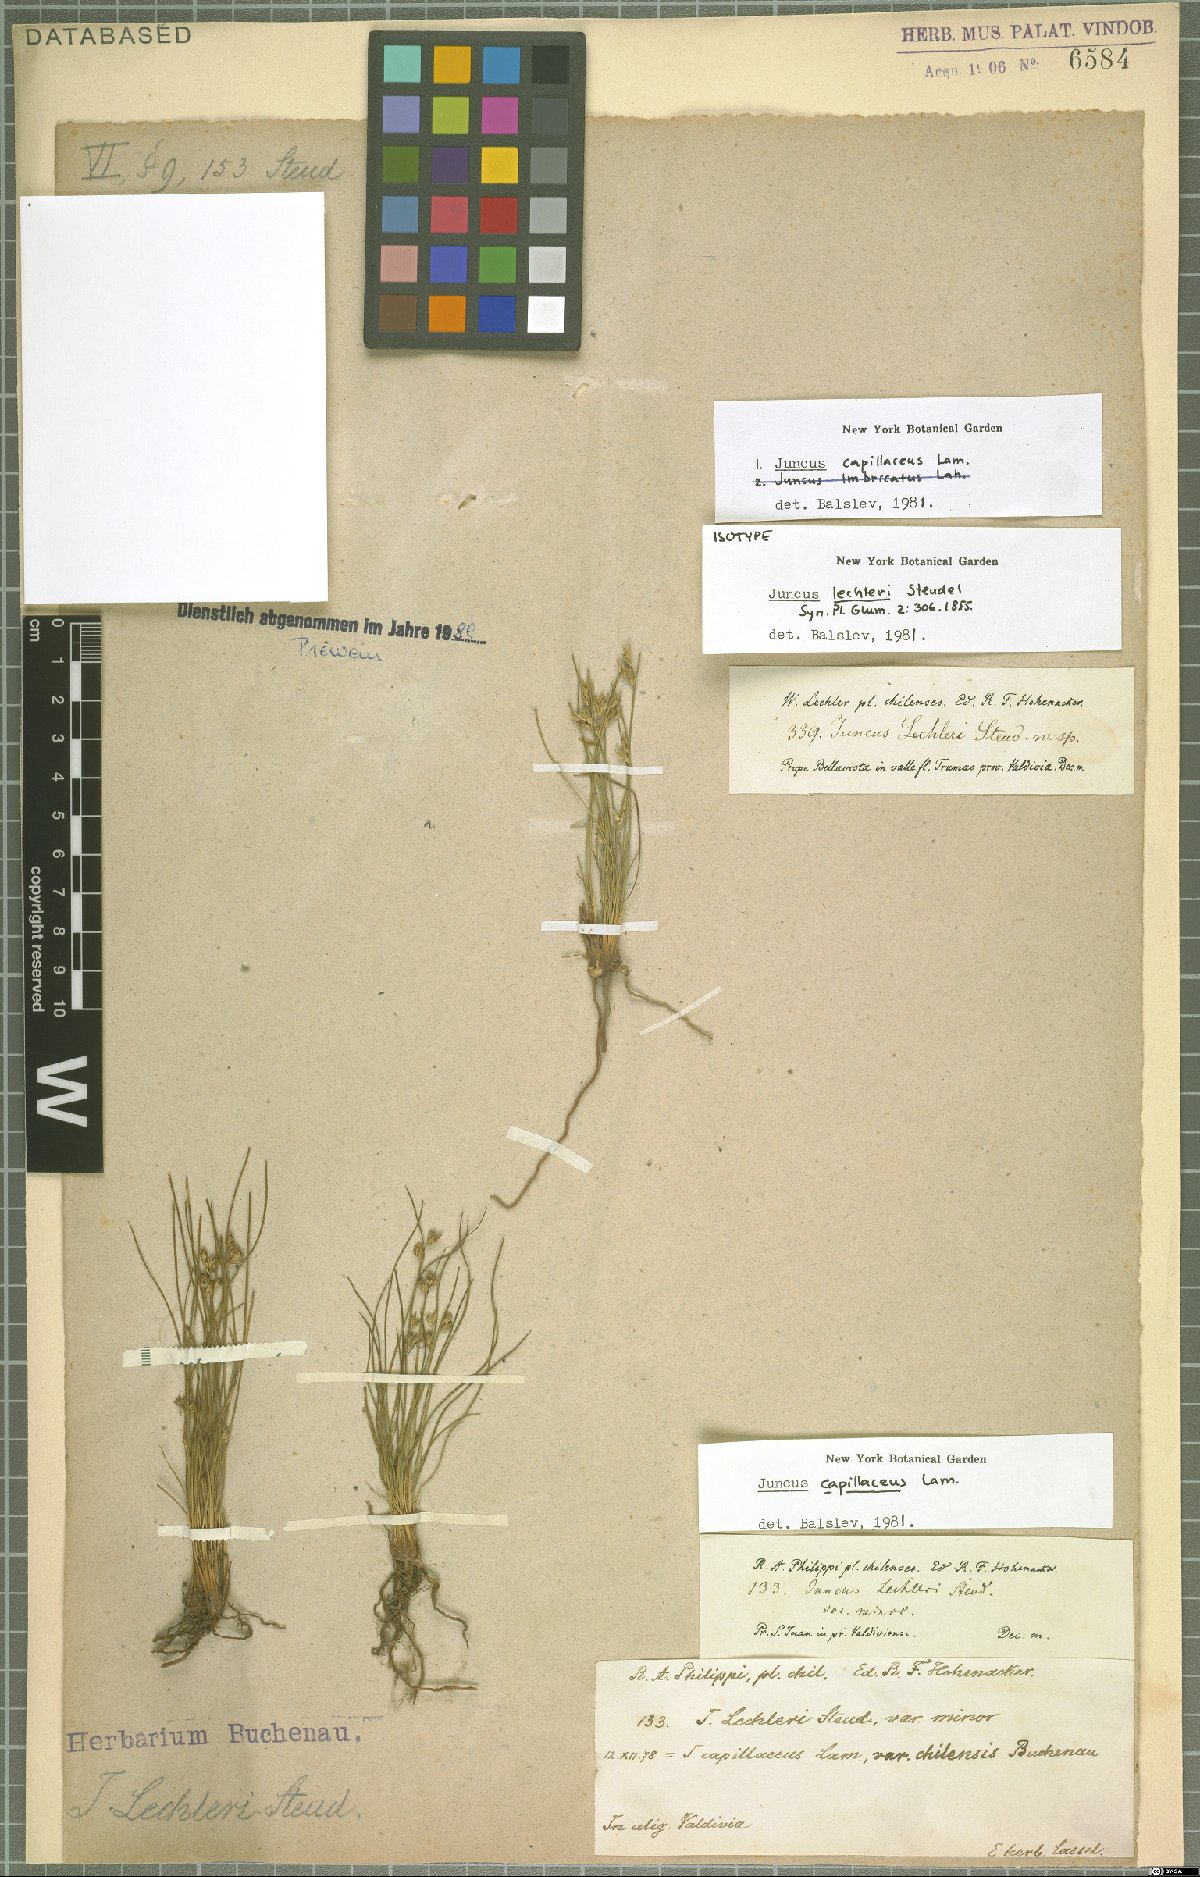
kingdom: Plantae
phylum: Tracheophyta
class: Liliopsida
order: Poales
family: Juncaceae
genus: Juncus
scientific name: Juncus capillaceus
